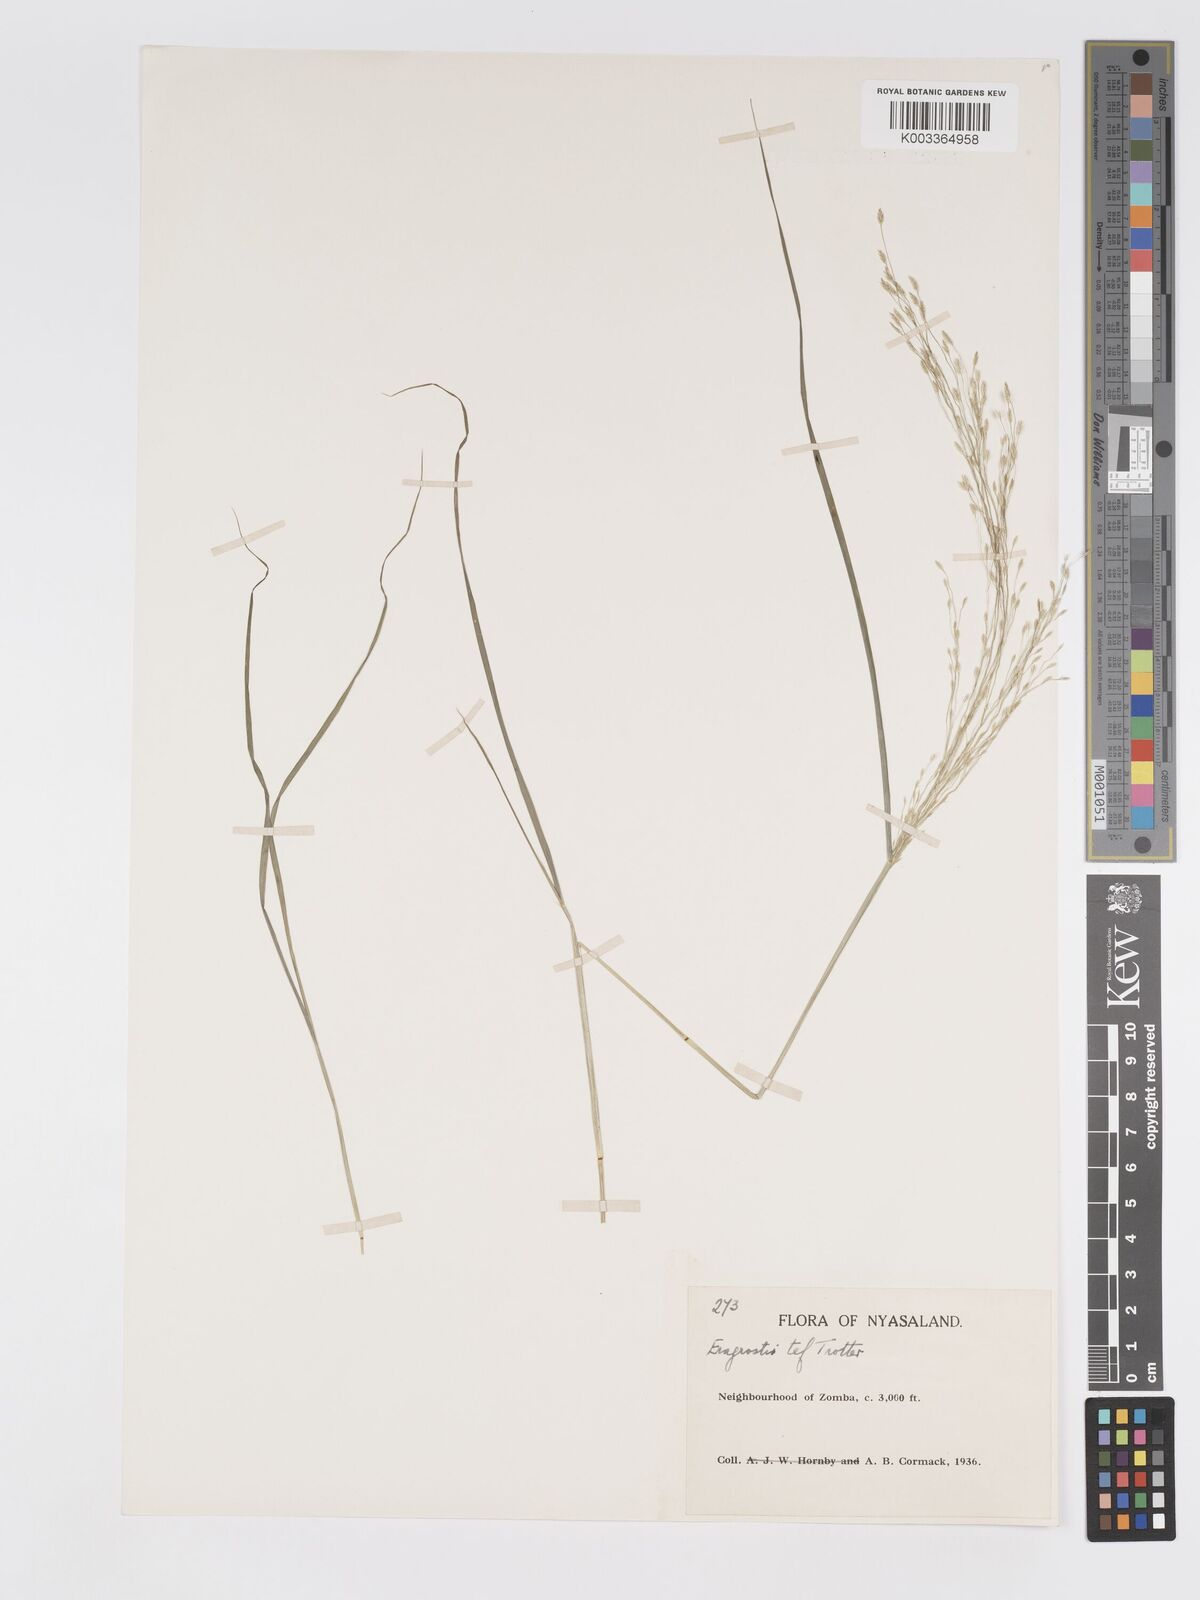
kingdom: Plantae
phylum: Tracheophyta
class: Liliopsida
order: Poales
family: Poaceae
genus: Eragrostis
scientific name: Eragrostis tef
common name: Teff
